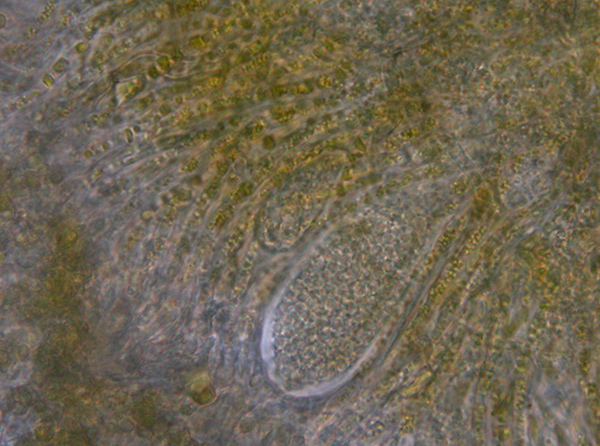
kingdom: Fungi
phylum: Ascomycota
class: Sareomycetes
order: Sareales
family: Sareaceae
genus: Sarea
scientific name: Sarea resinae
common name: orangegul harpiksskive
